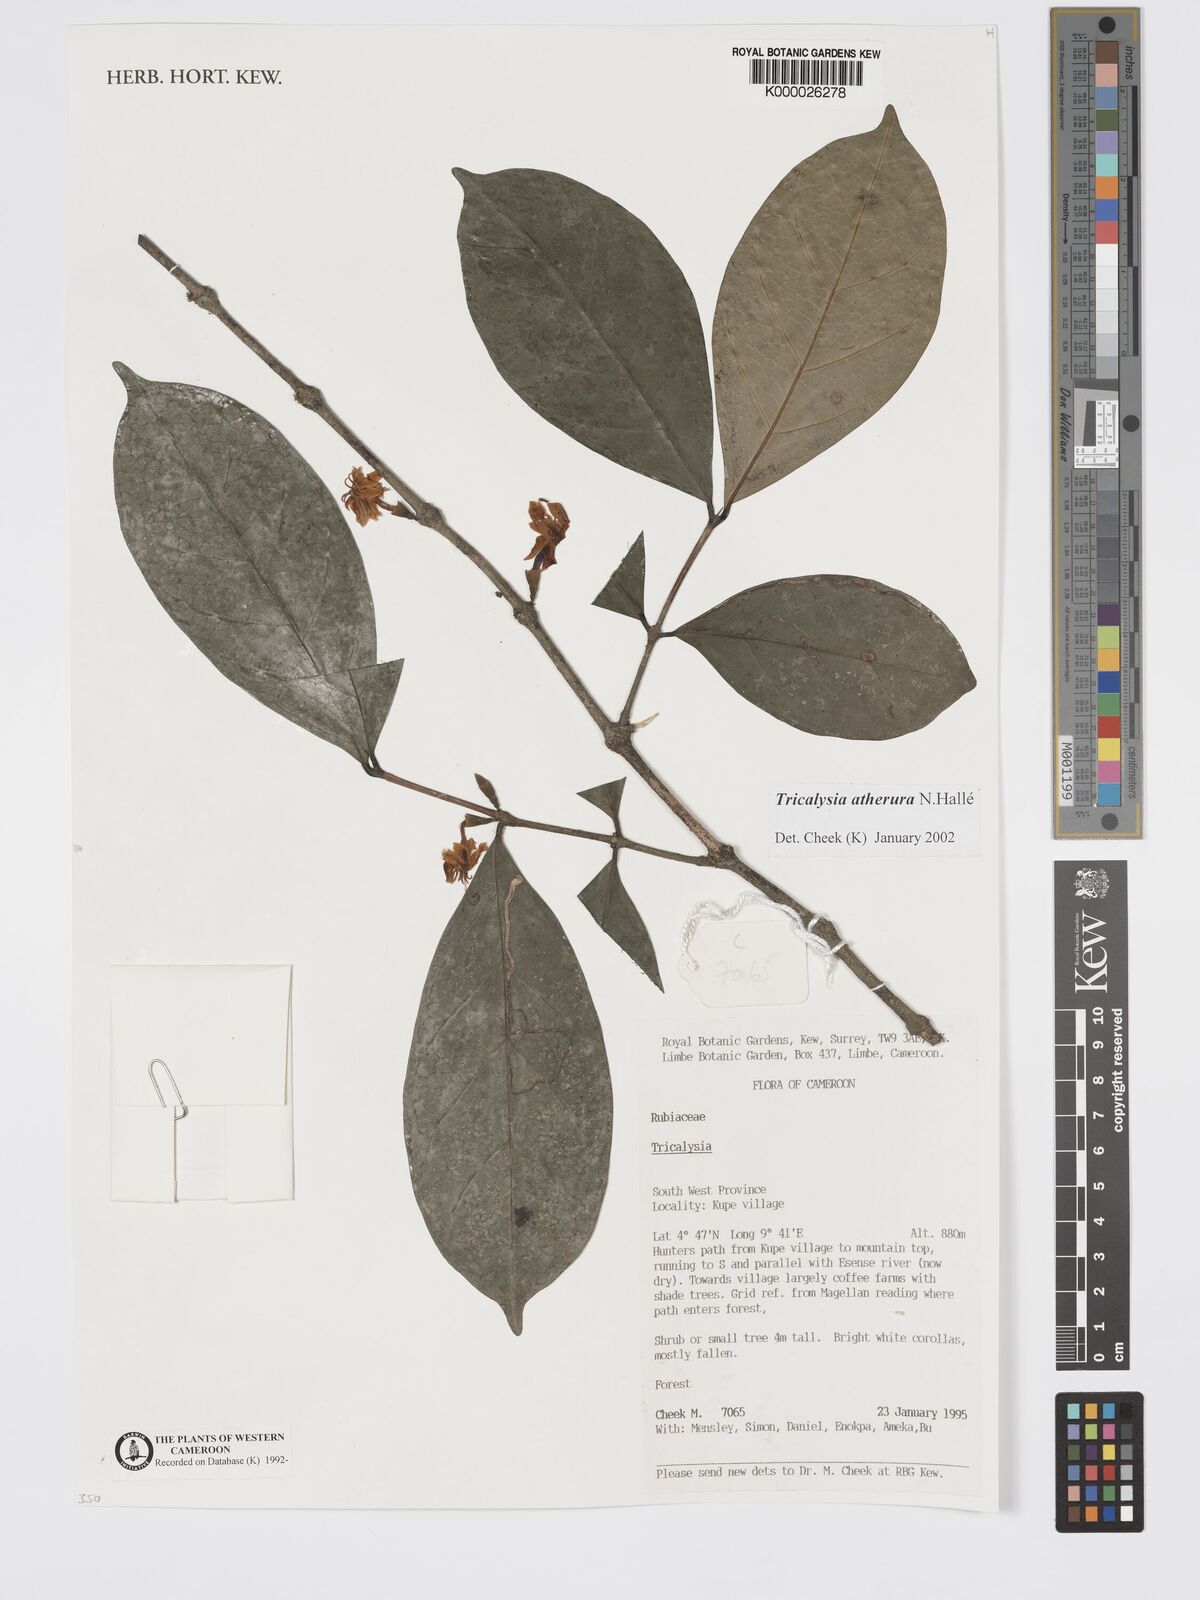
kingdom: Plantae
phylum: Tracheophyta
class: Magnoliopsida
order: Gentianales
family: Rubiaceae
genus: Tricalysia
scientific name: Tricalysia
